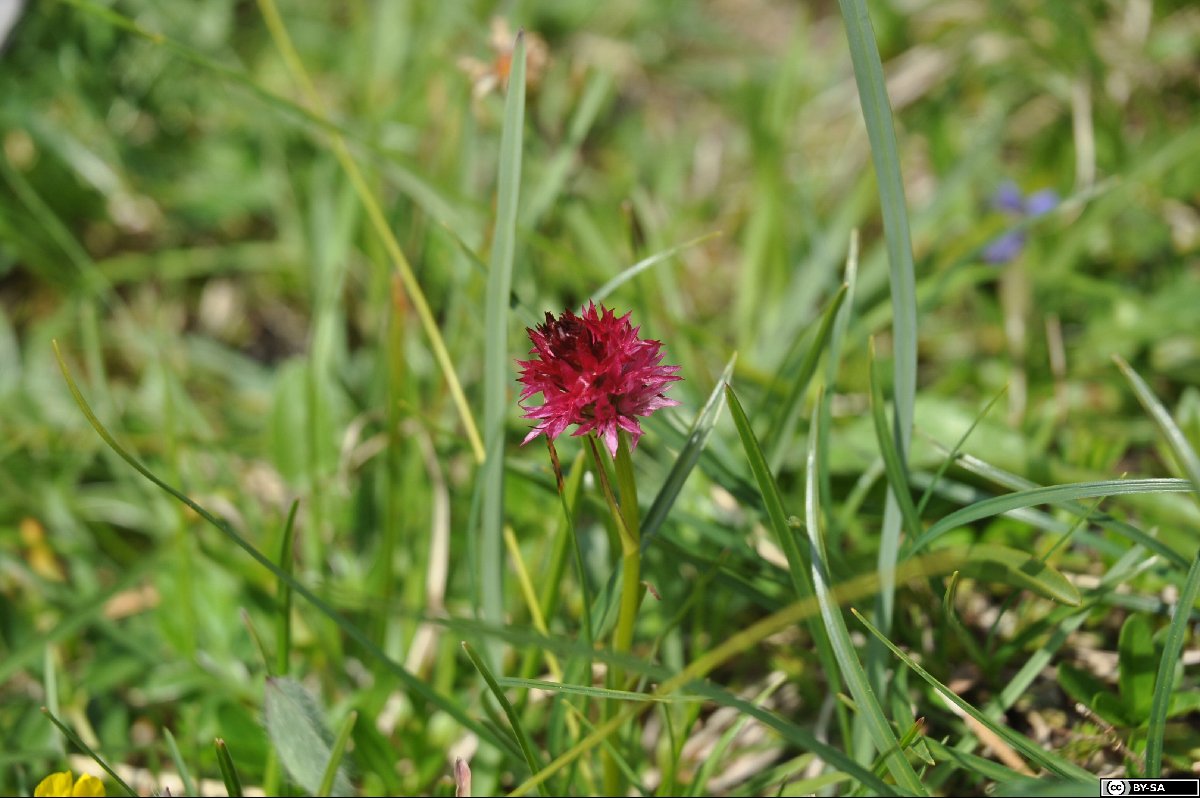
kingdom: Plantae
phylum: Tracheophyta
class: Liliopsida
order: Asparagales
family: Orchidaceae
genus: Gymnadenia
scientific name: Gymnadenia bicolor
